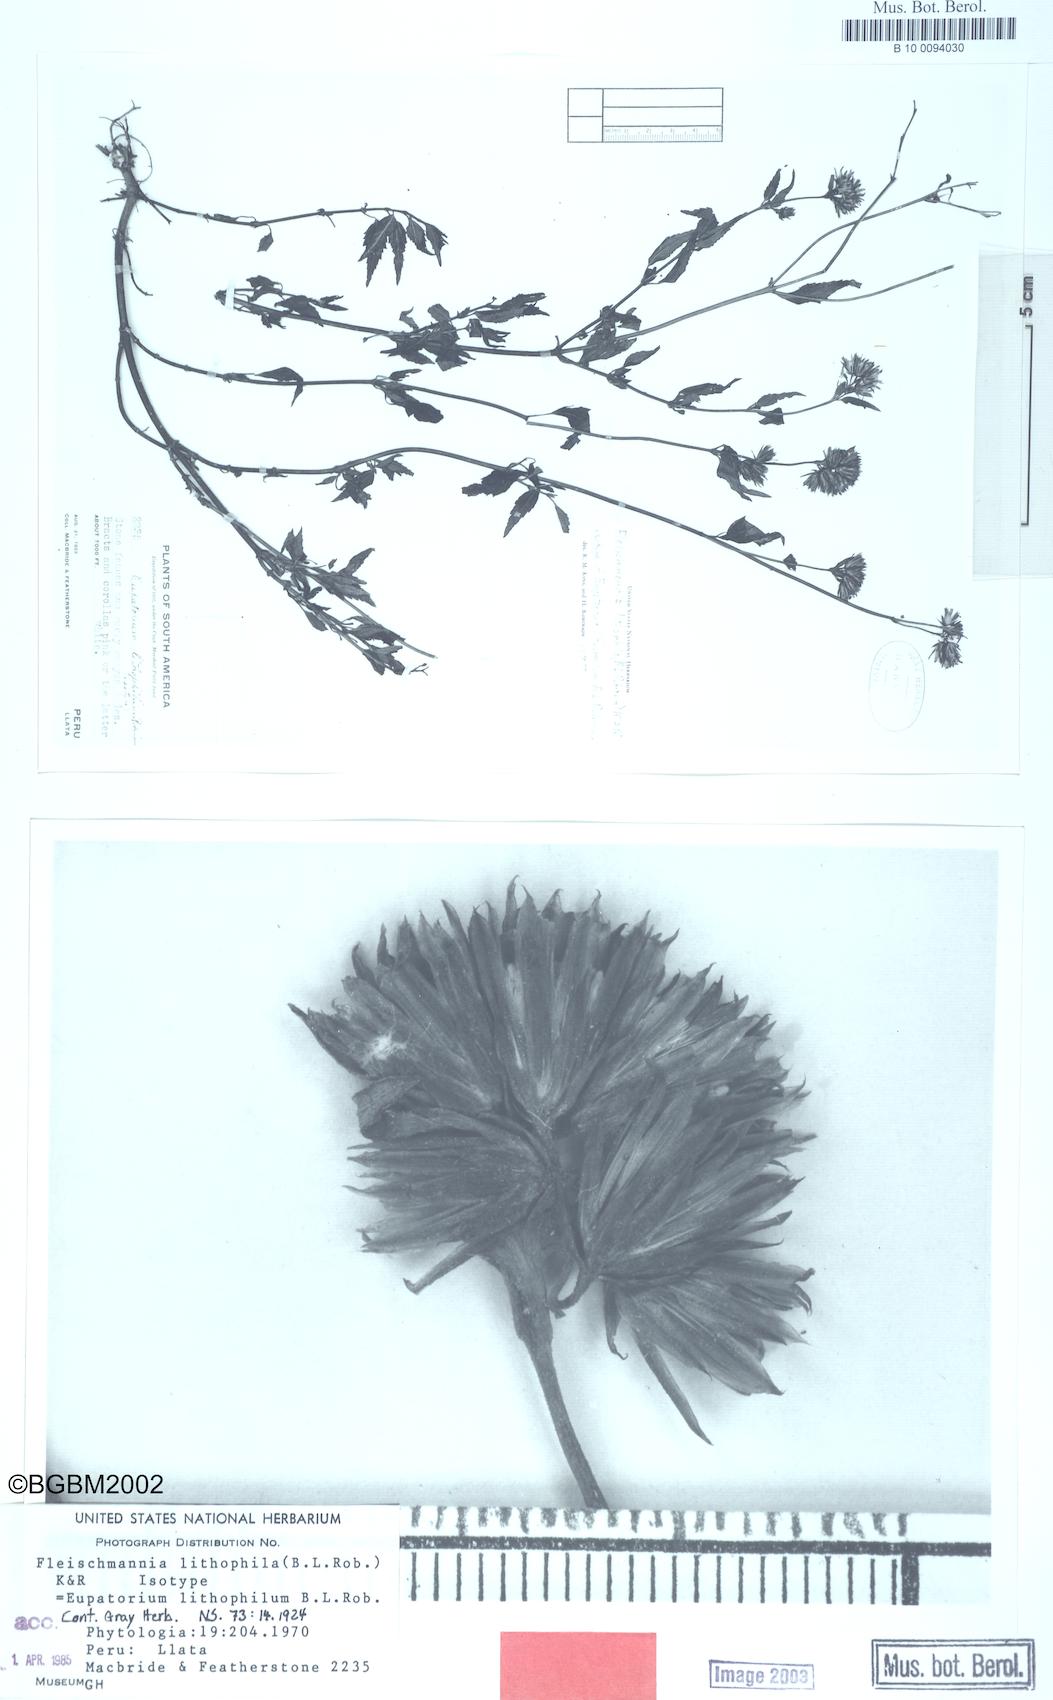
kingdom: Plantae
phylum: Tracheophyta
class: Magnoliopsida
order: Asterales
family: Asteraceae
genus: Fleischmannia
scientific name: Fleischmannia lithophila
